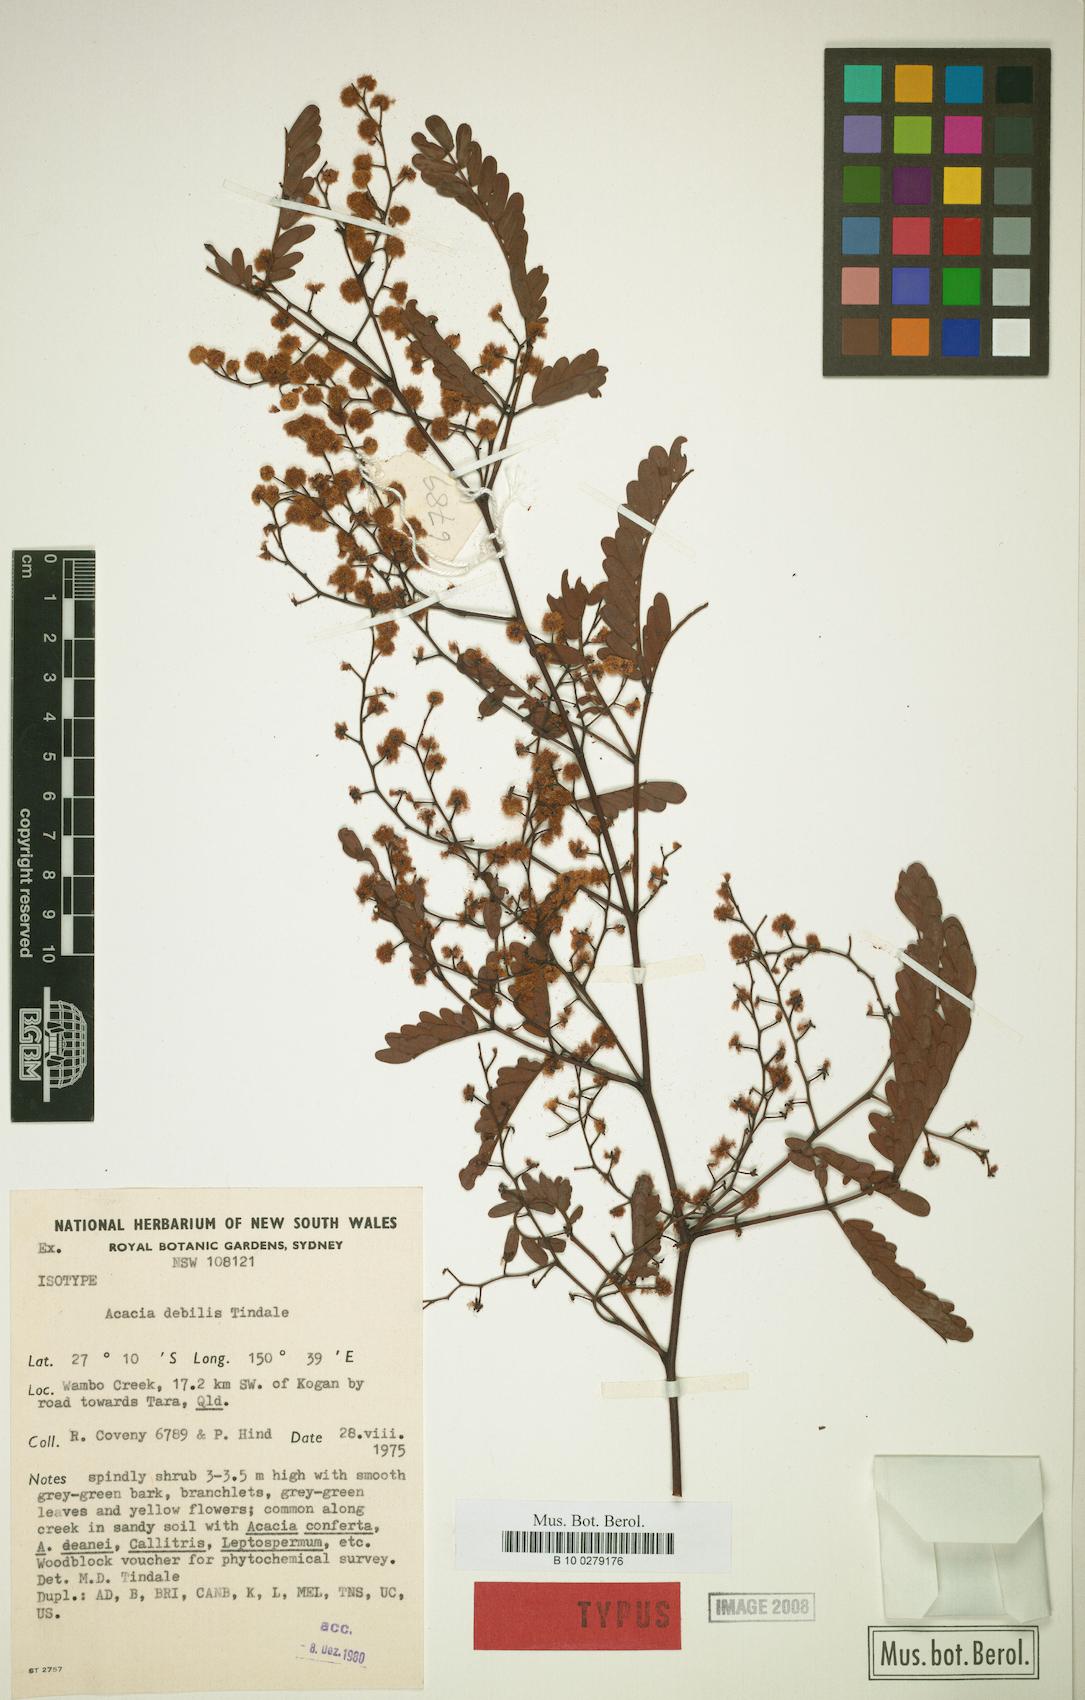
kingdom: Plantae
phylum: Tracheophyta
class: Magnoliopsida
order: Fabales
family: Fabaceae
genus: Acacia
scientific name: Acacia debilis
